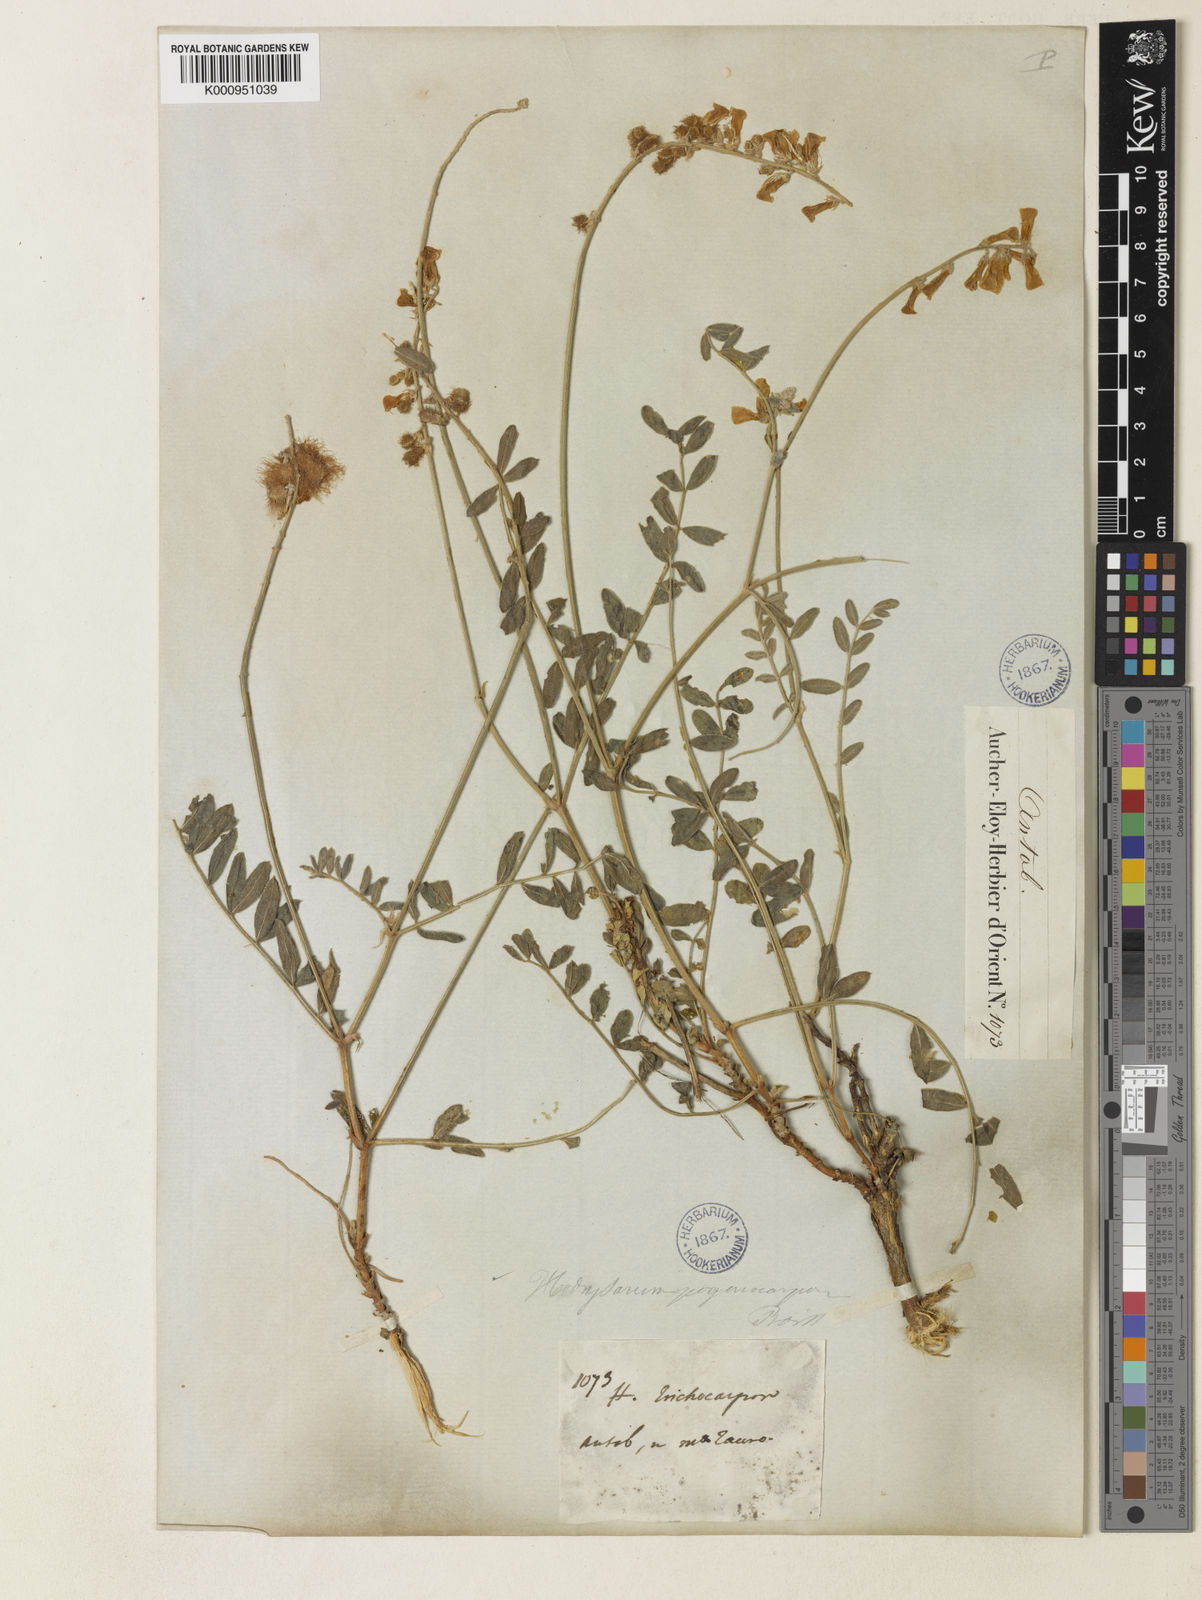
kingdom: Plantae
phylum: Tracheophyta
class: Magnoliopsida
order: Fabales
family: Fabaceae
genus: Hedysarum
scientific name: Hedysarum pogonocarpum
